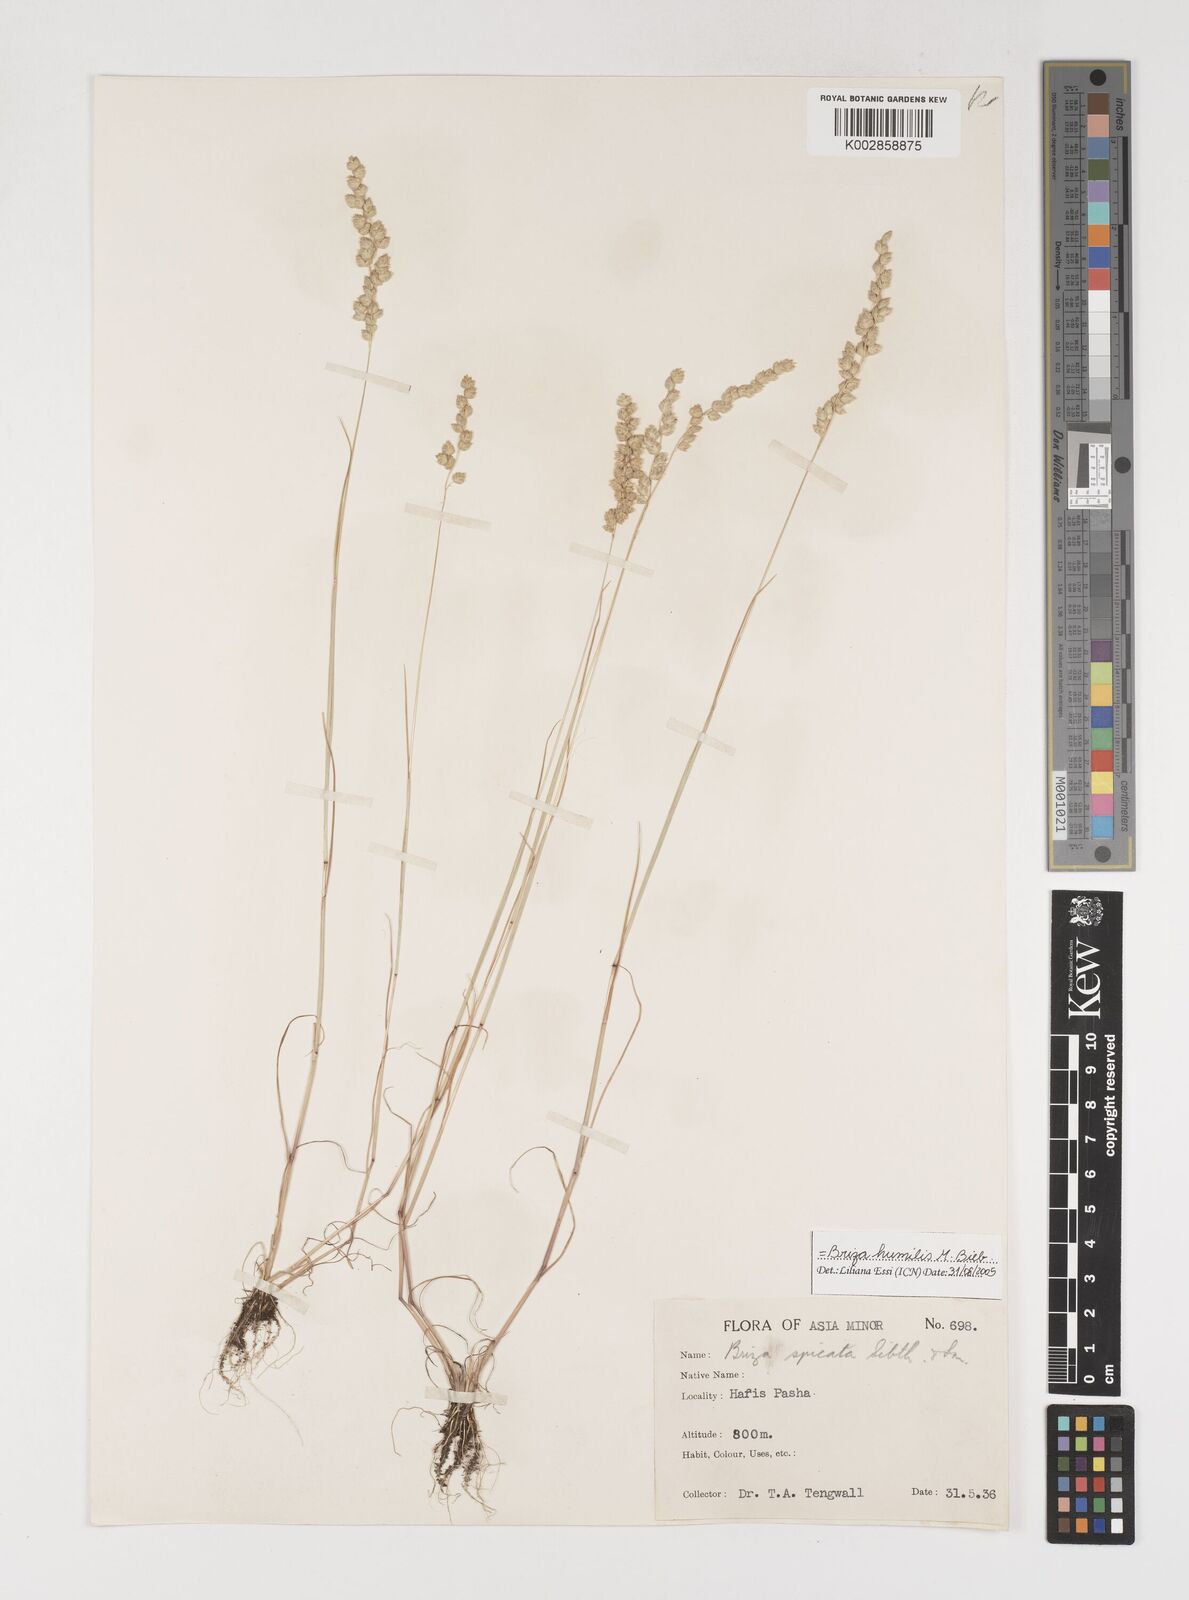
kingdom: Plantae
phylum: Tracheophyta
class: Liliopsida
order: Poales
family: Poaceae
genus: Briza
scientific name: Briza humilis
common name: Spiked quaking grass
